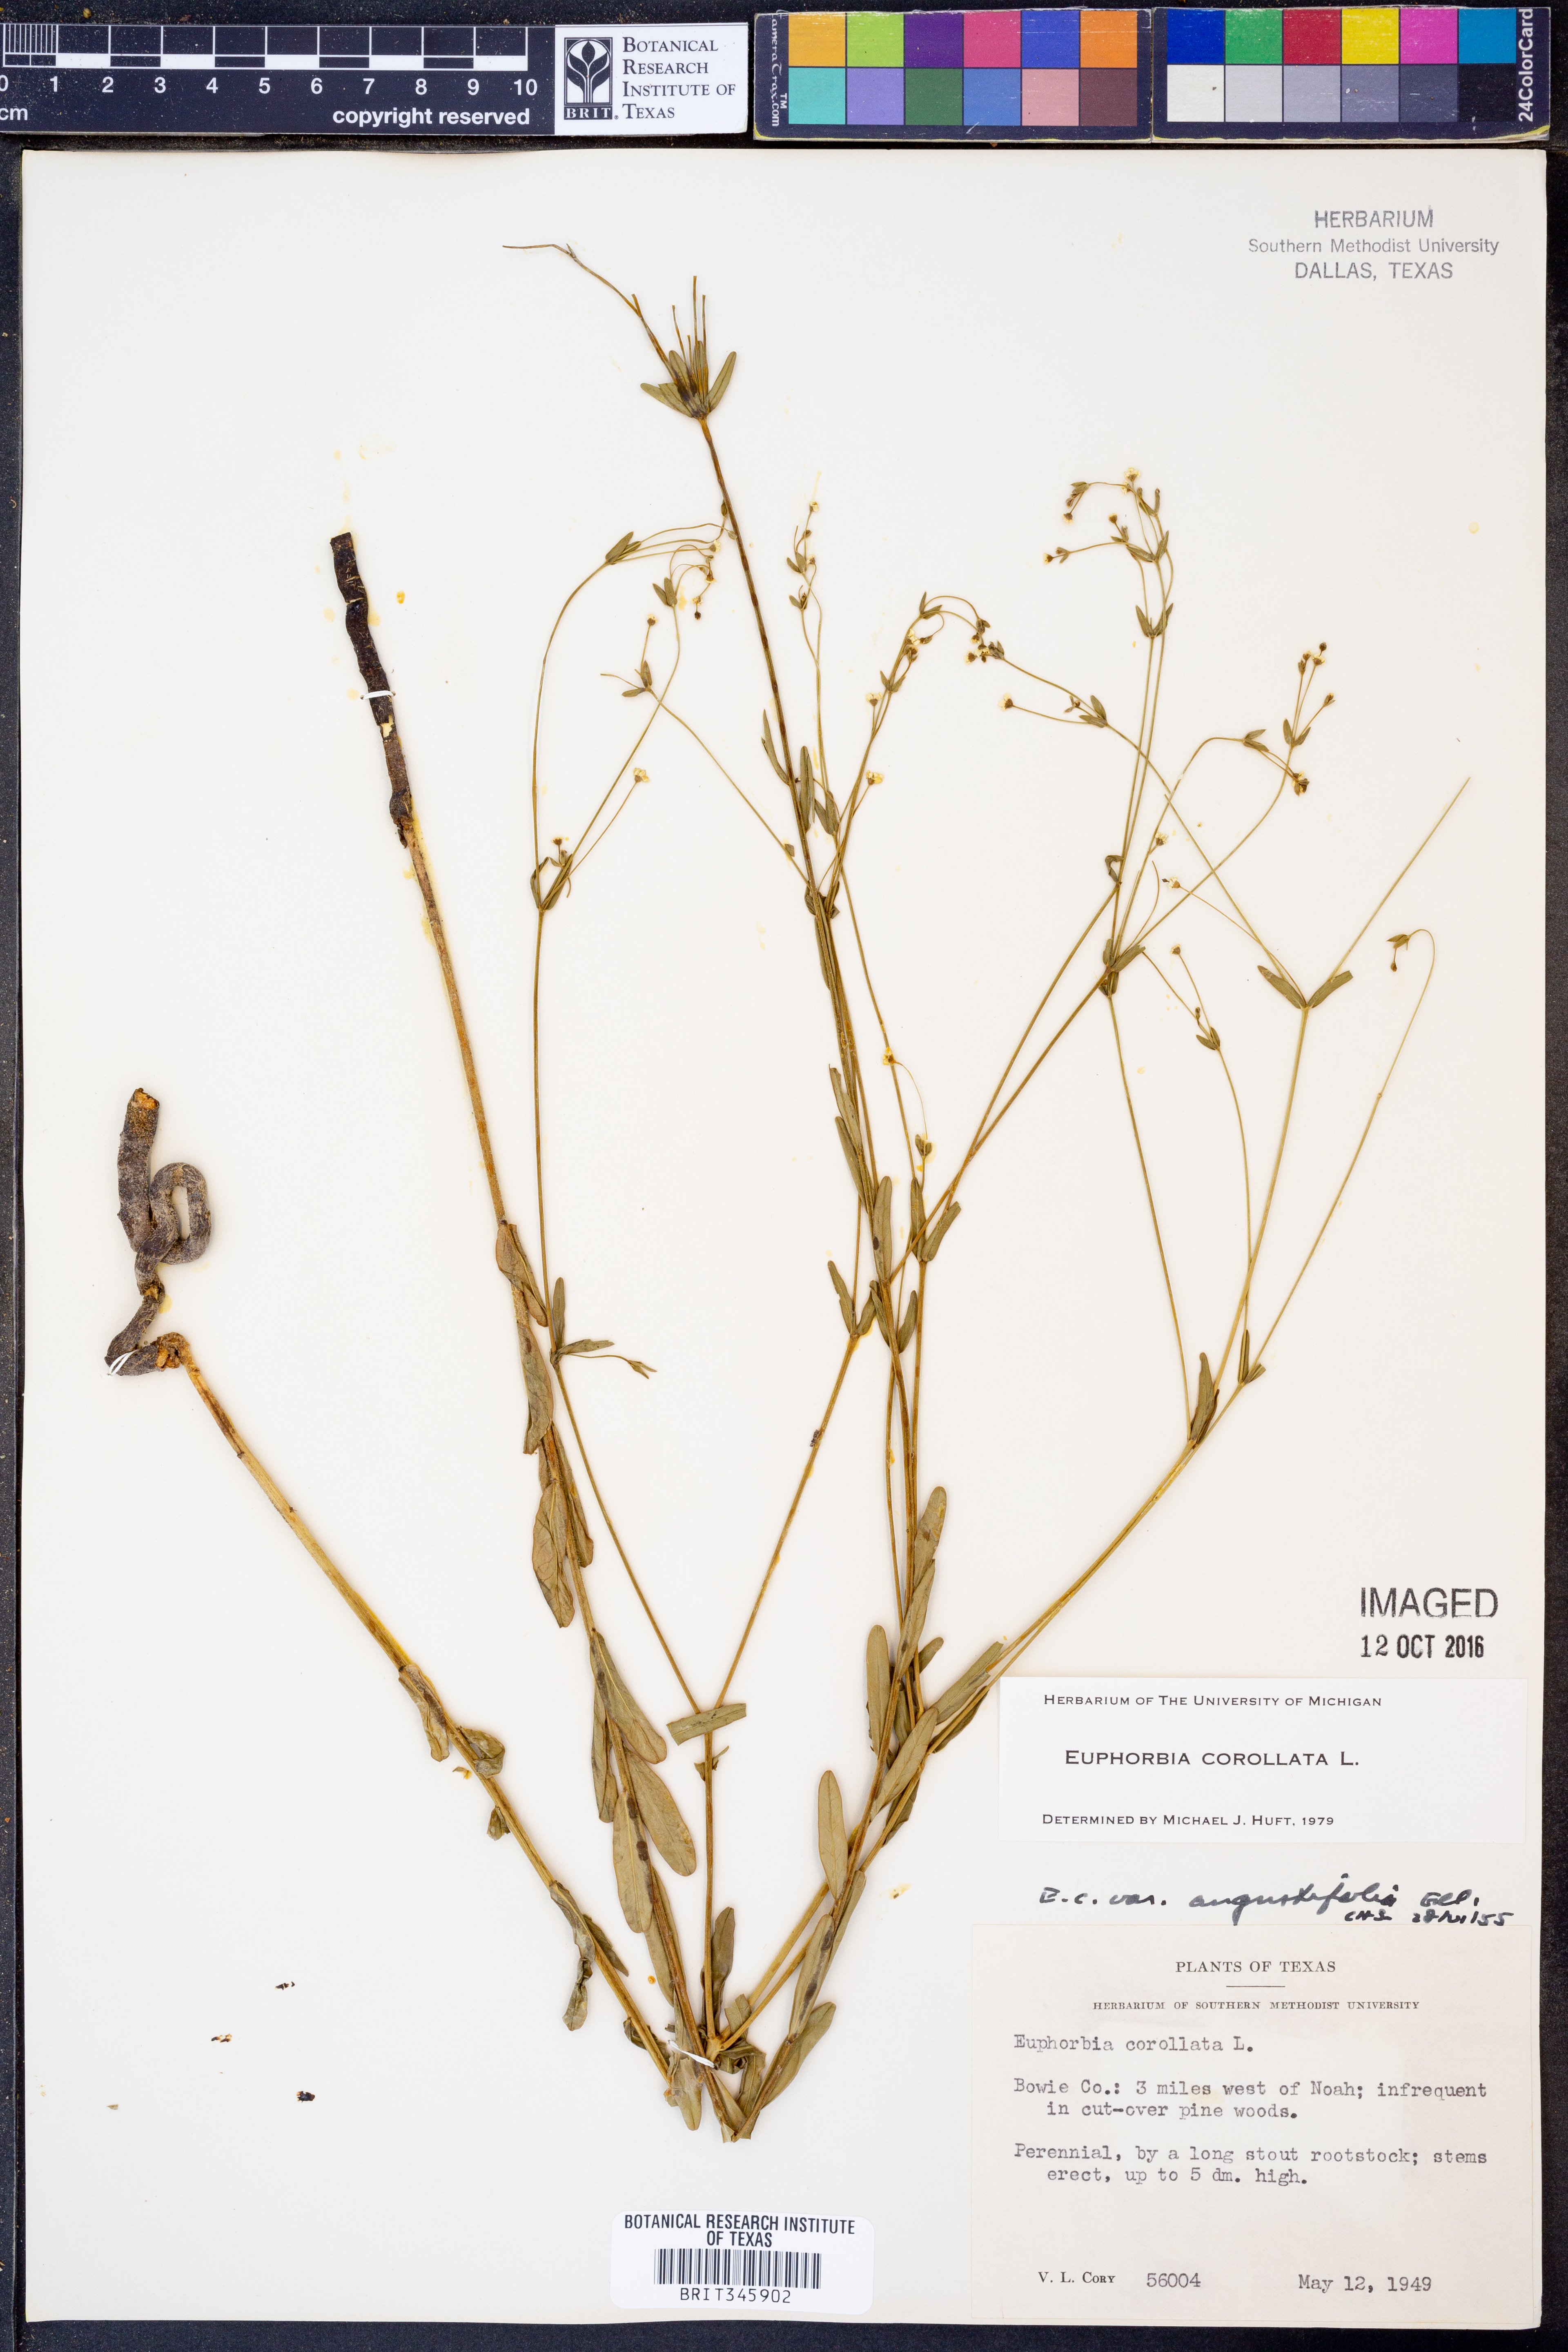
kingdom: Plantae
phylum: Tracheophyta
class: Magnoliopsida
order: Malpighiales
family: Euphorbiaceae
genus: Euphorbia
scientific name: Euphorbia corollata
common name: Flowering spurge
